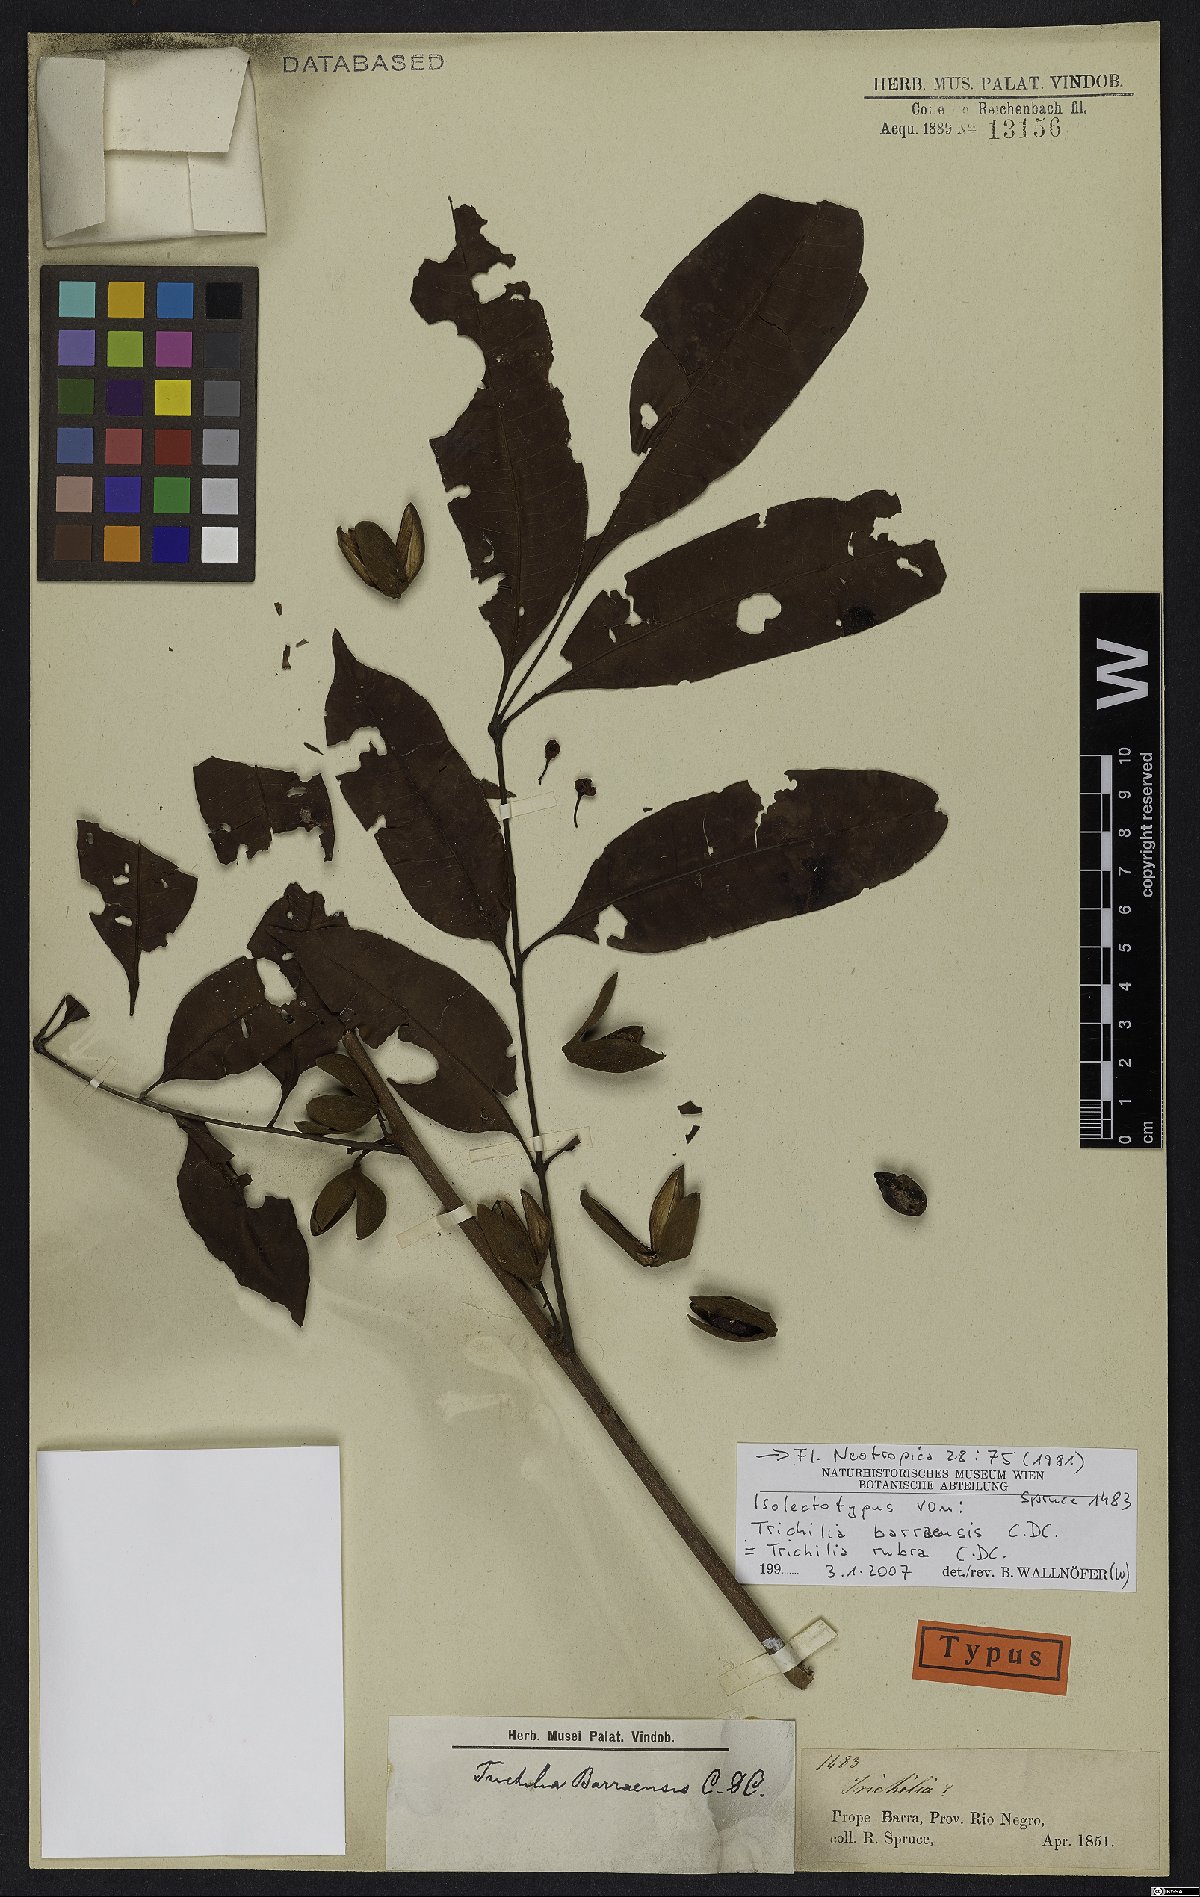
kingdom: Plantae
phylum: Tracheophyta
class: Magnoliopsida
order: Sapindales
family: Meliaceae
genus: Trichilia
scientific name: Trichilia rubra
